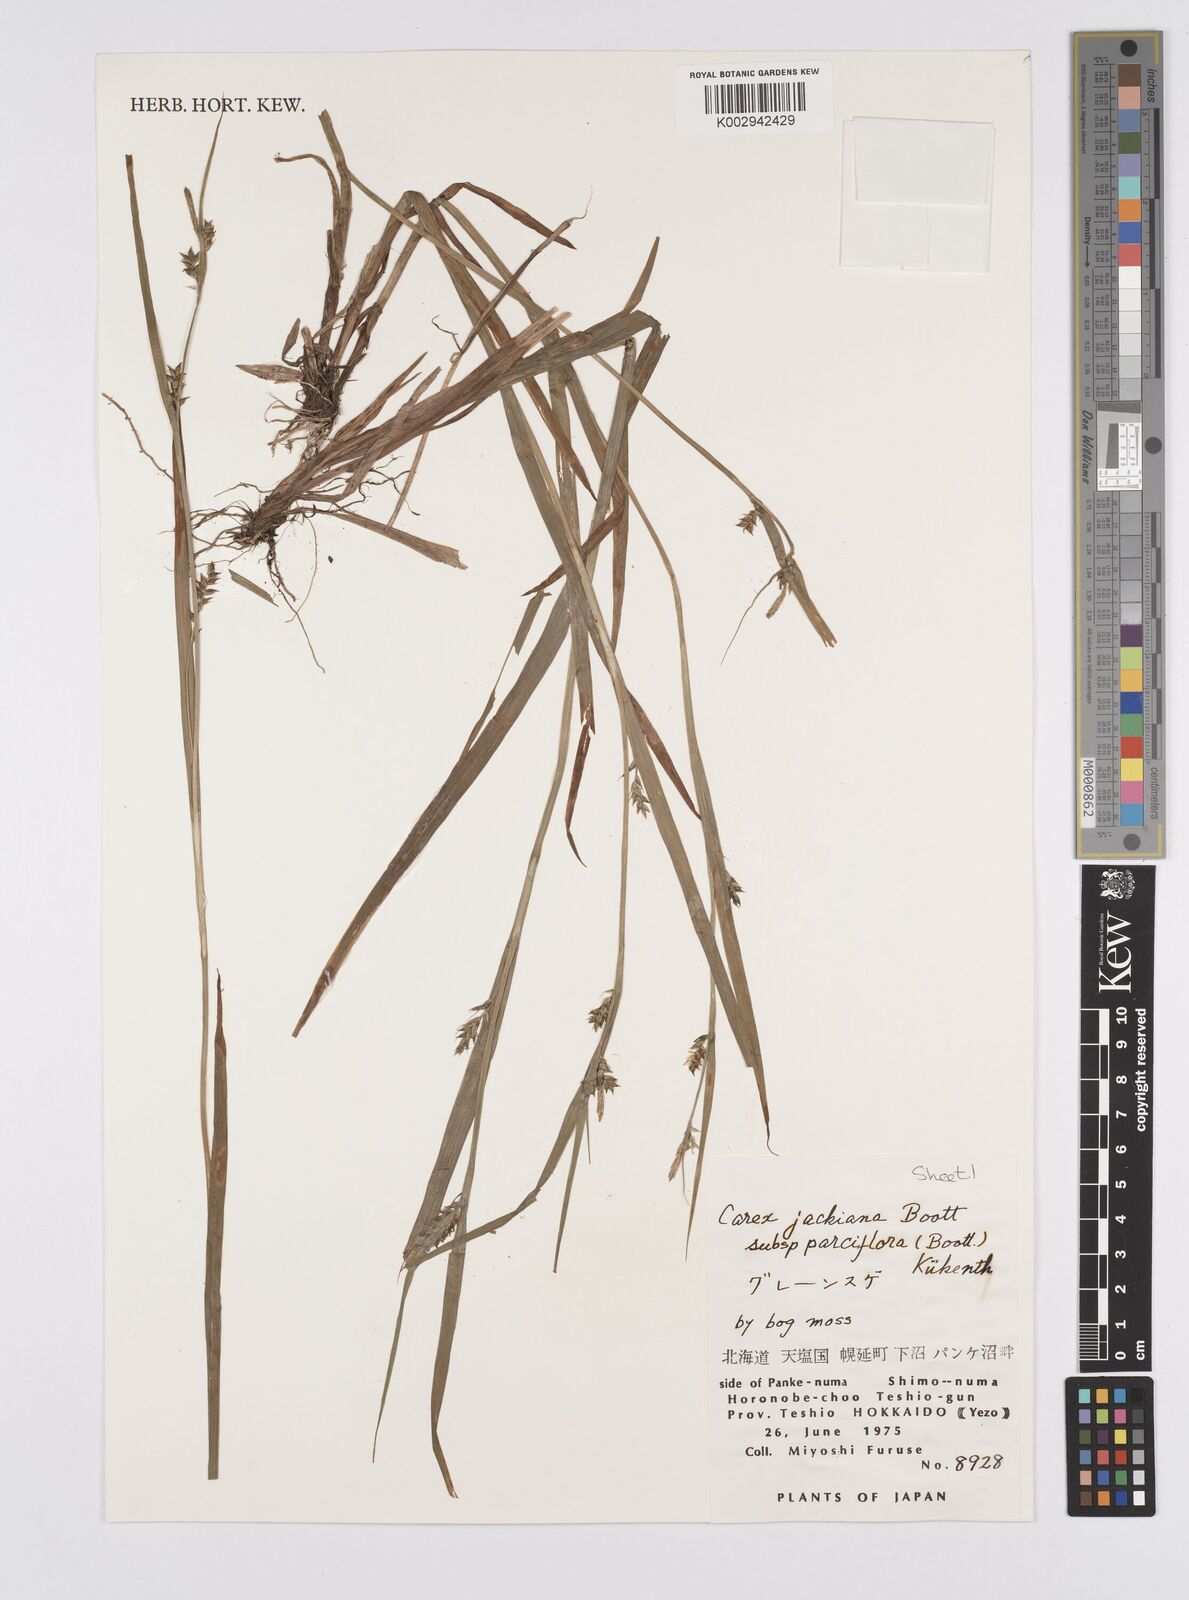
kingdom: Plantae
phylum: Tracheophyta
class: Liliopsida
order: Poales
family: Cyperaceae
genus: Carex
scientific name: Carex parciflora
